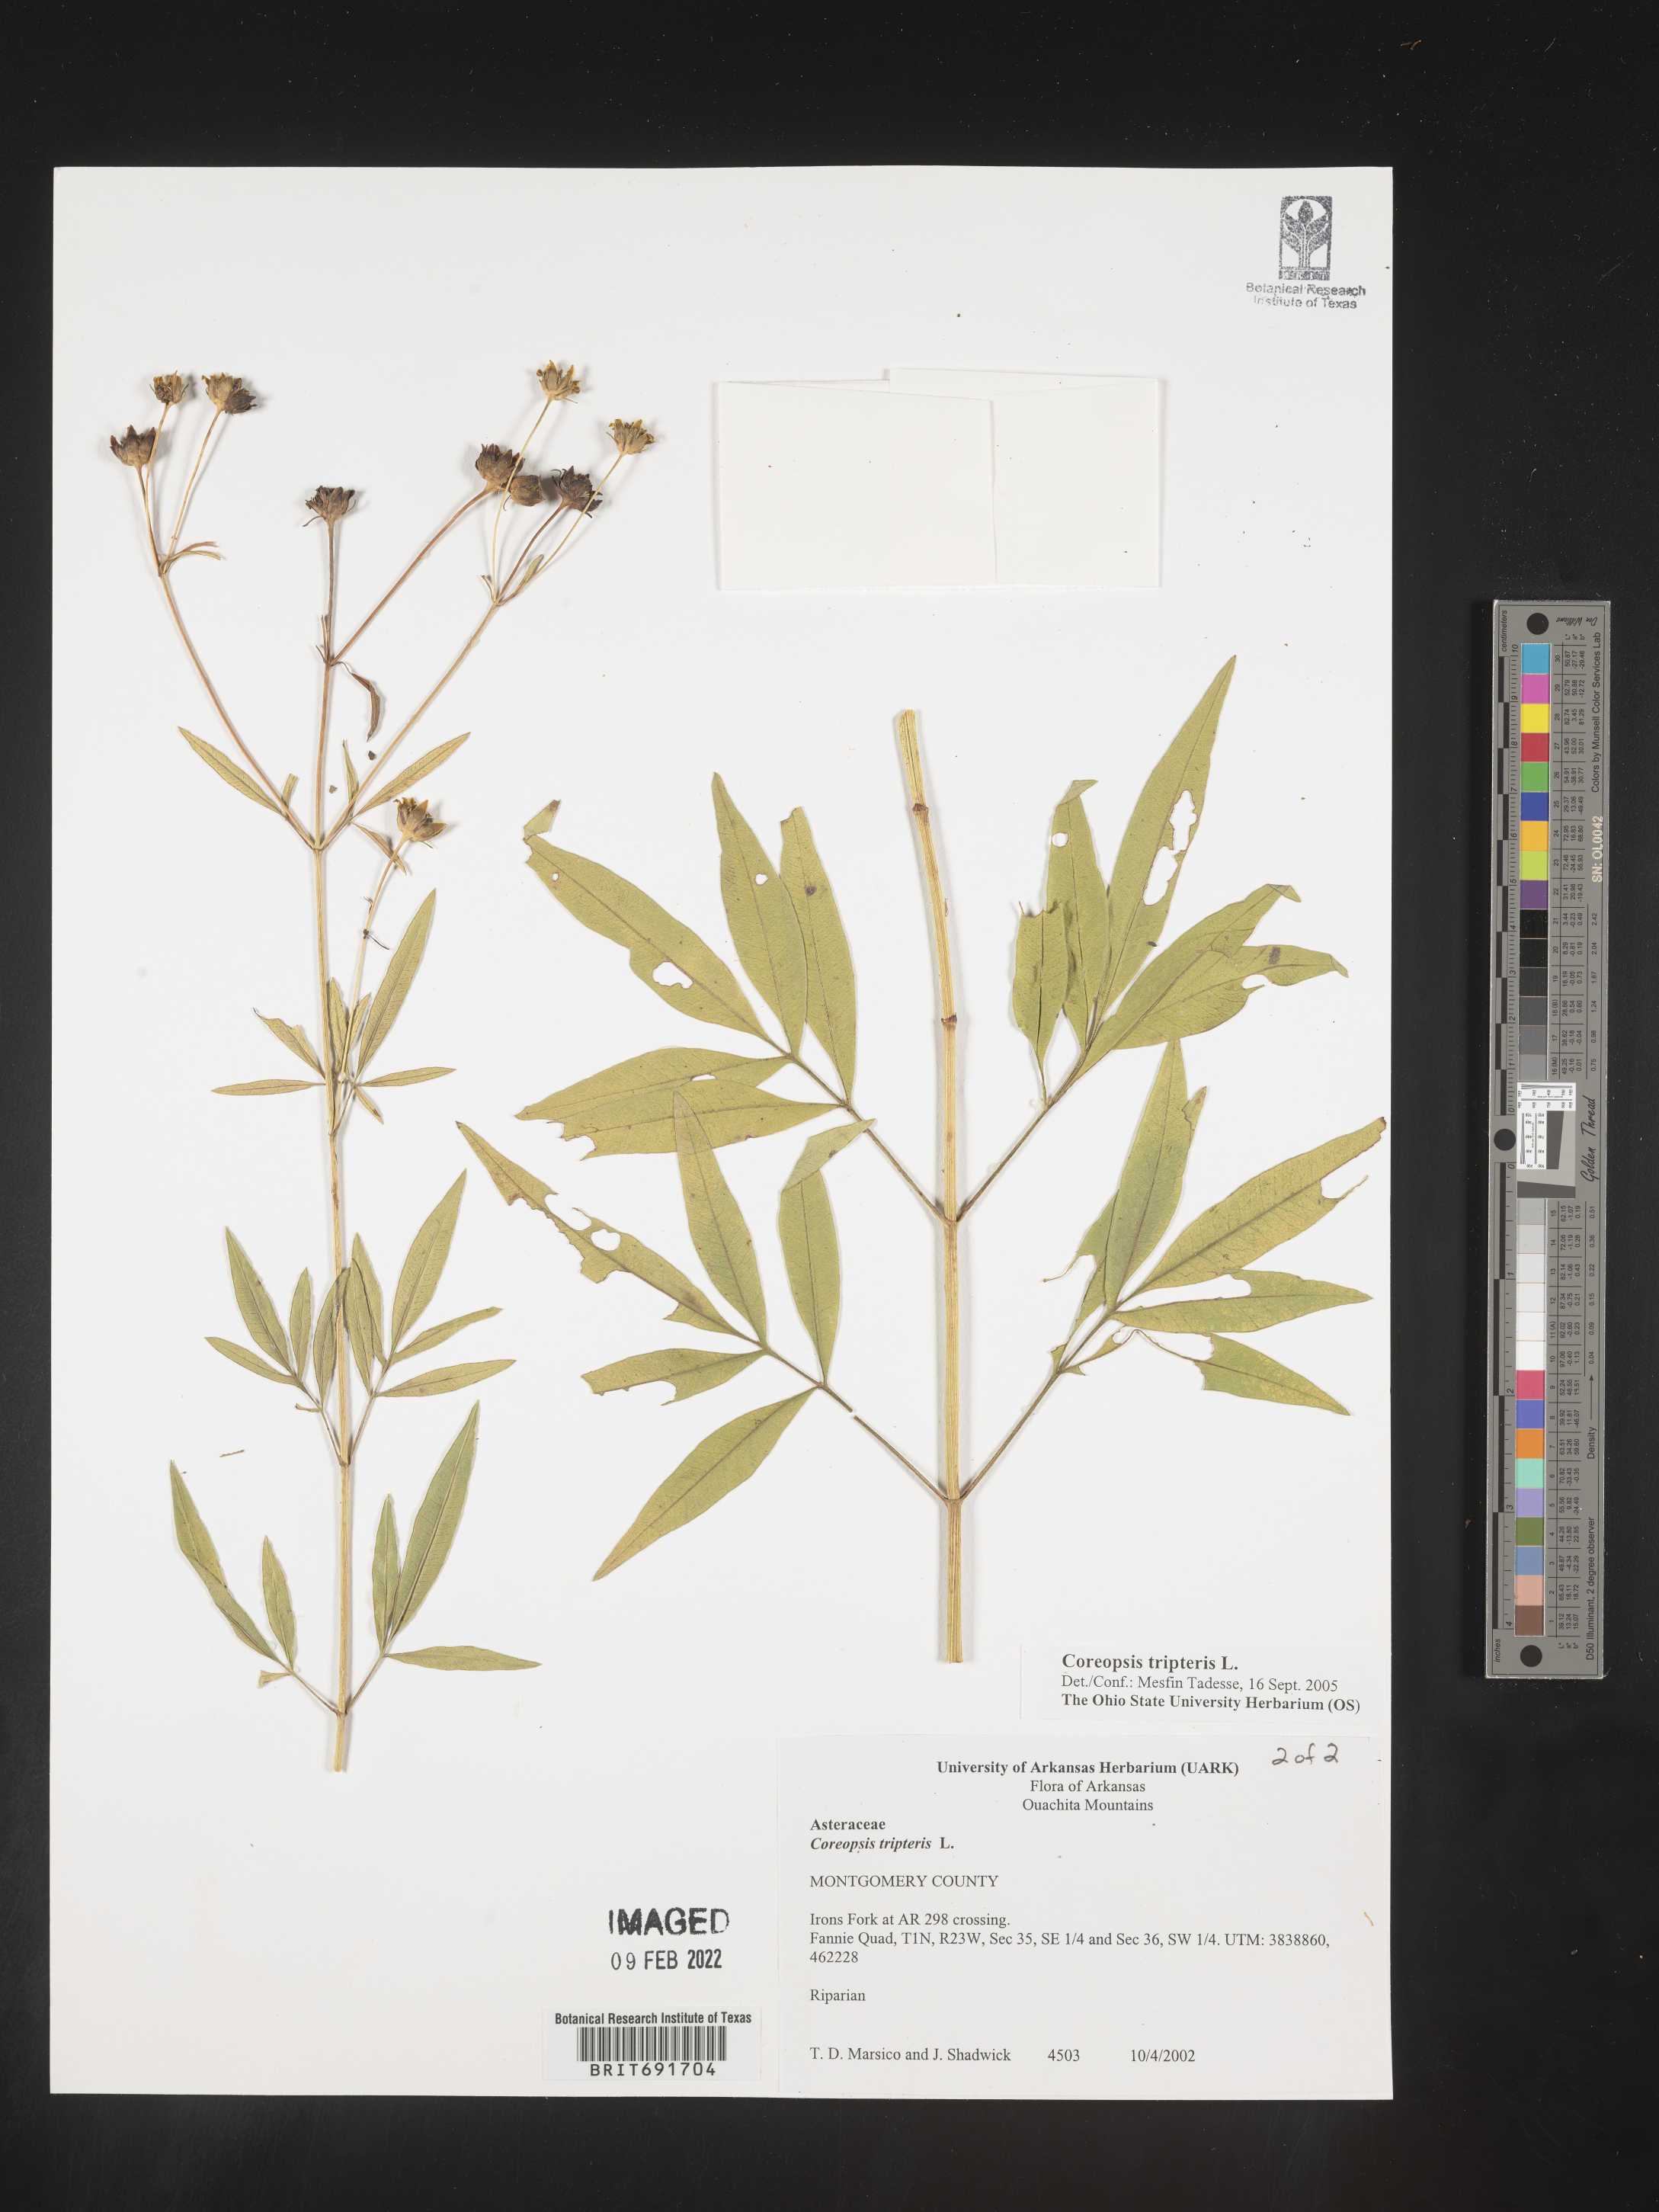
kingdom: Plantae
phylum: Tracheophyta
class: Magnoliopsida
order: Asterales
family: Asteraceae
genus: Coreopsis
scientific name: Coreopsis tripteris
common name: Tall coreopsis
